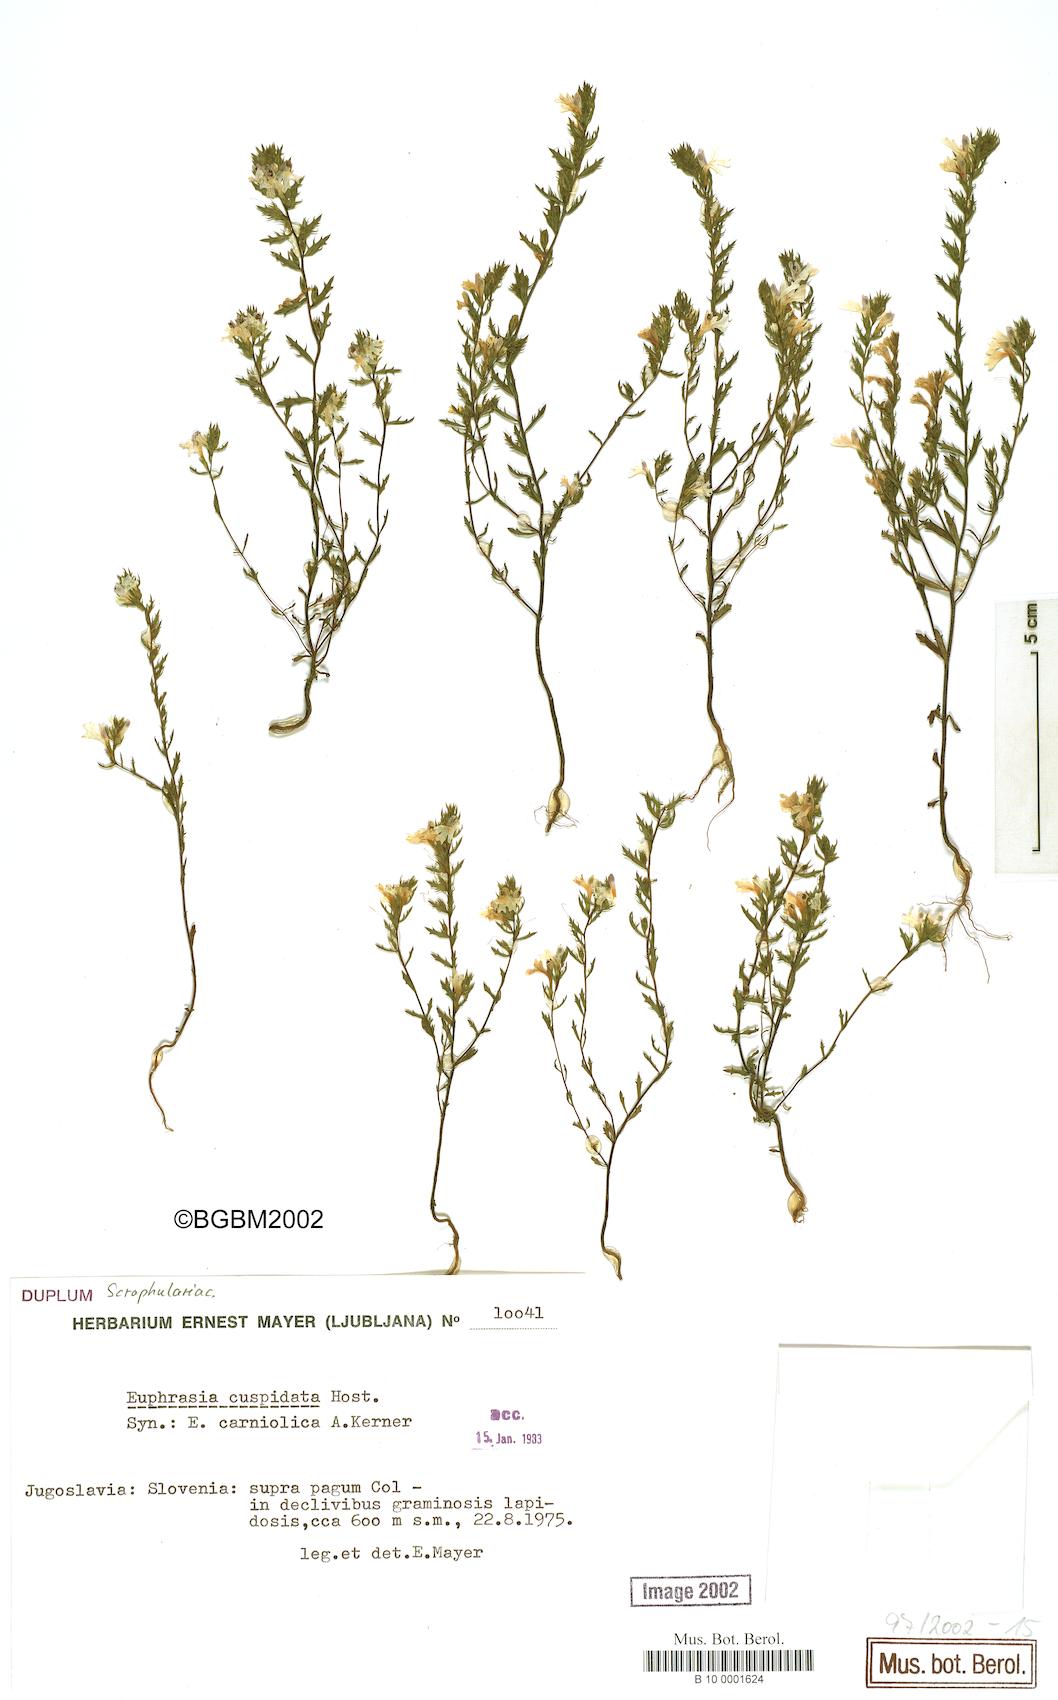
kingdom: Plantae
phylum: Tracheophyta
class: Magnoliopsida
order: Lamiales
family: Orobanchaceae
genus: Euphrasia
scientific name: Euphrasia cuspidata
